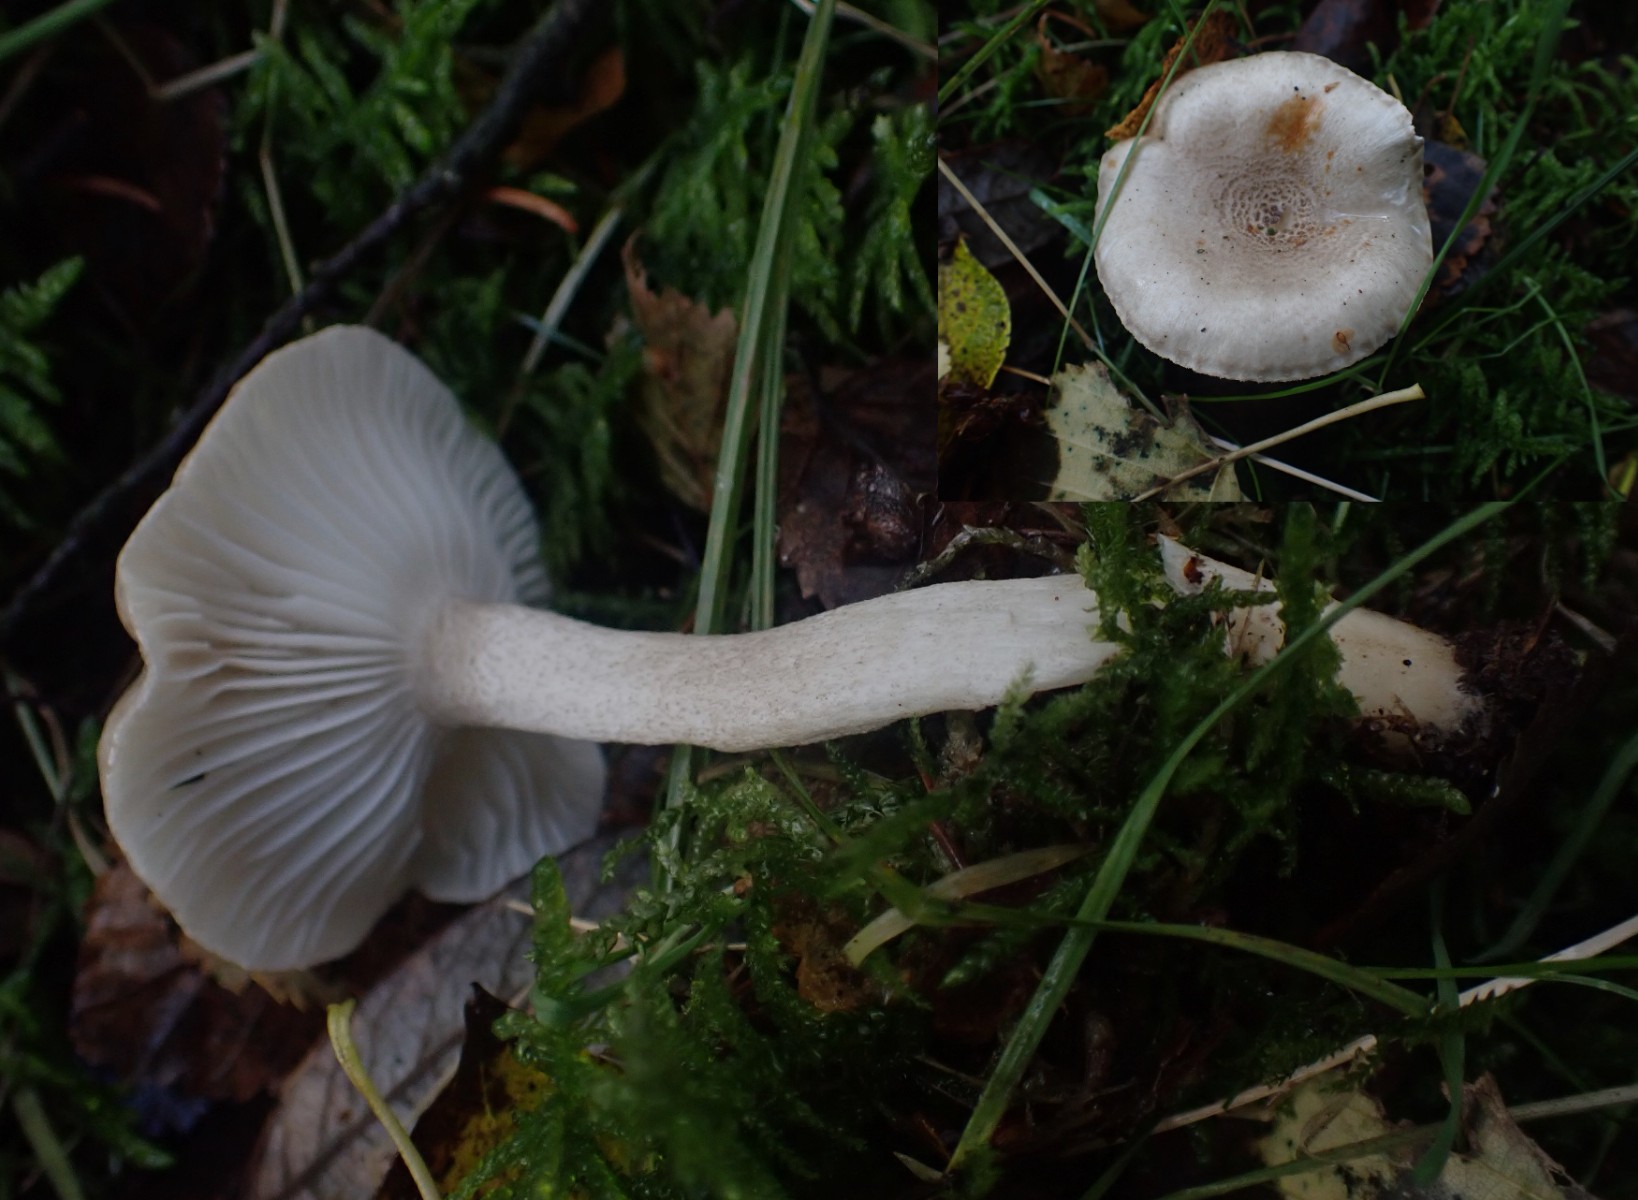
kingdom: Fungi
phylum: Basidiomycota
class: Agaricomycetes
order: Agaricales
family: Hygrophoraceae
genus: Hygrophorus
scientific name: Hygrophorus pustulatus
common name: mørkprikket sneglehat
